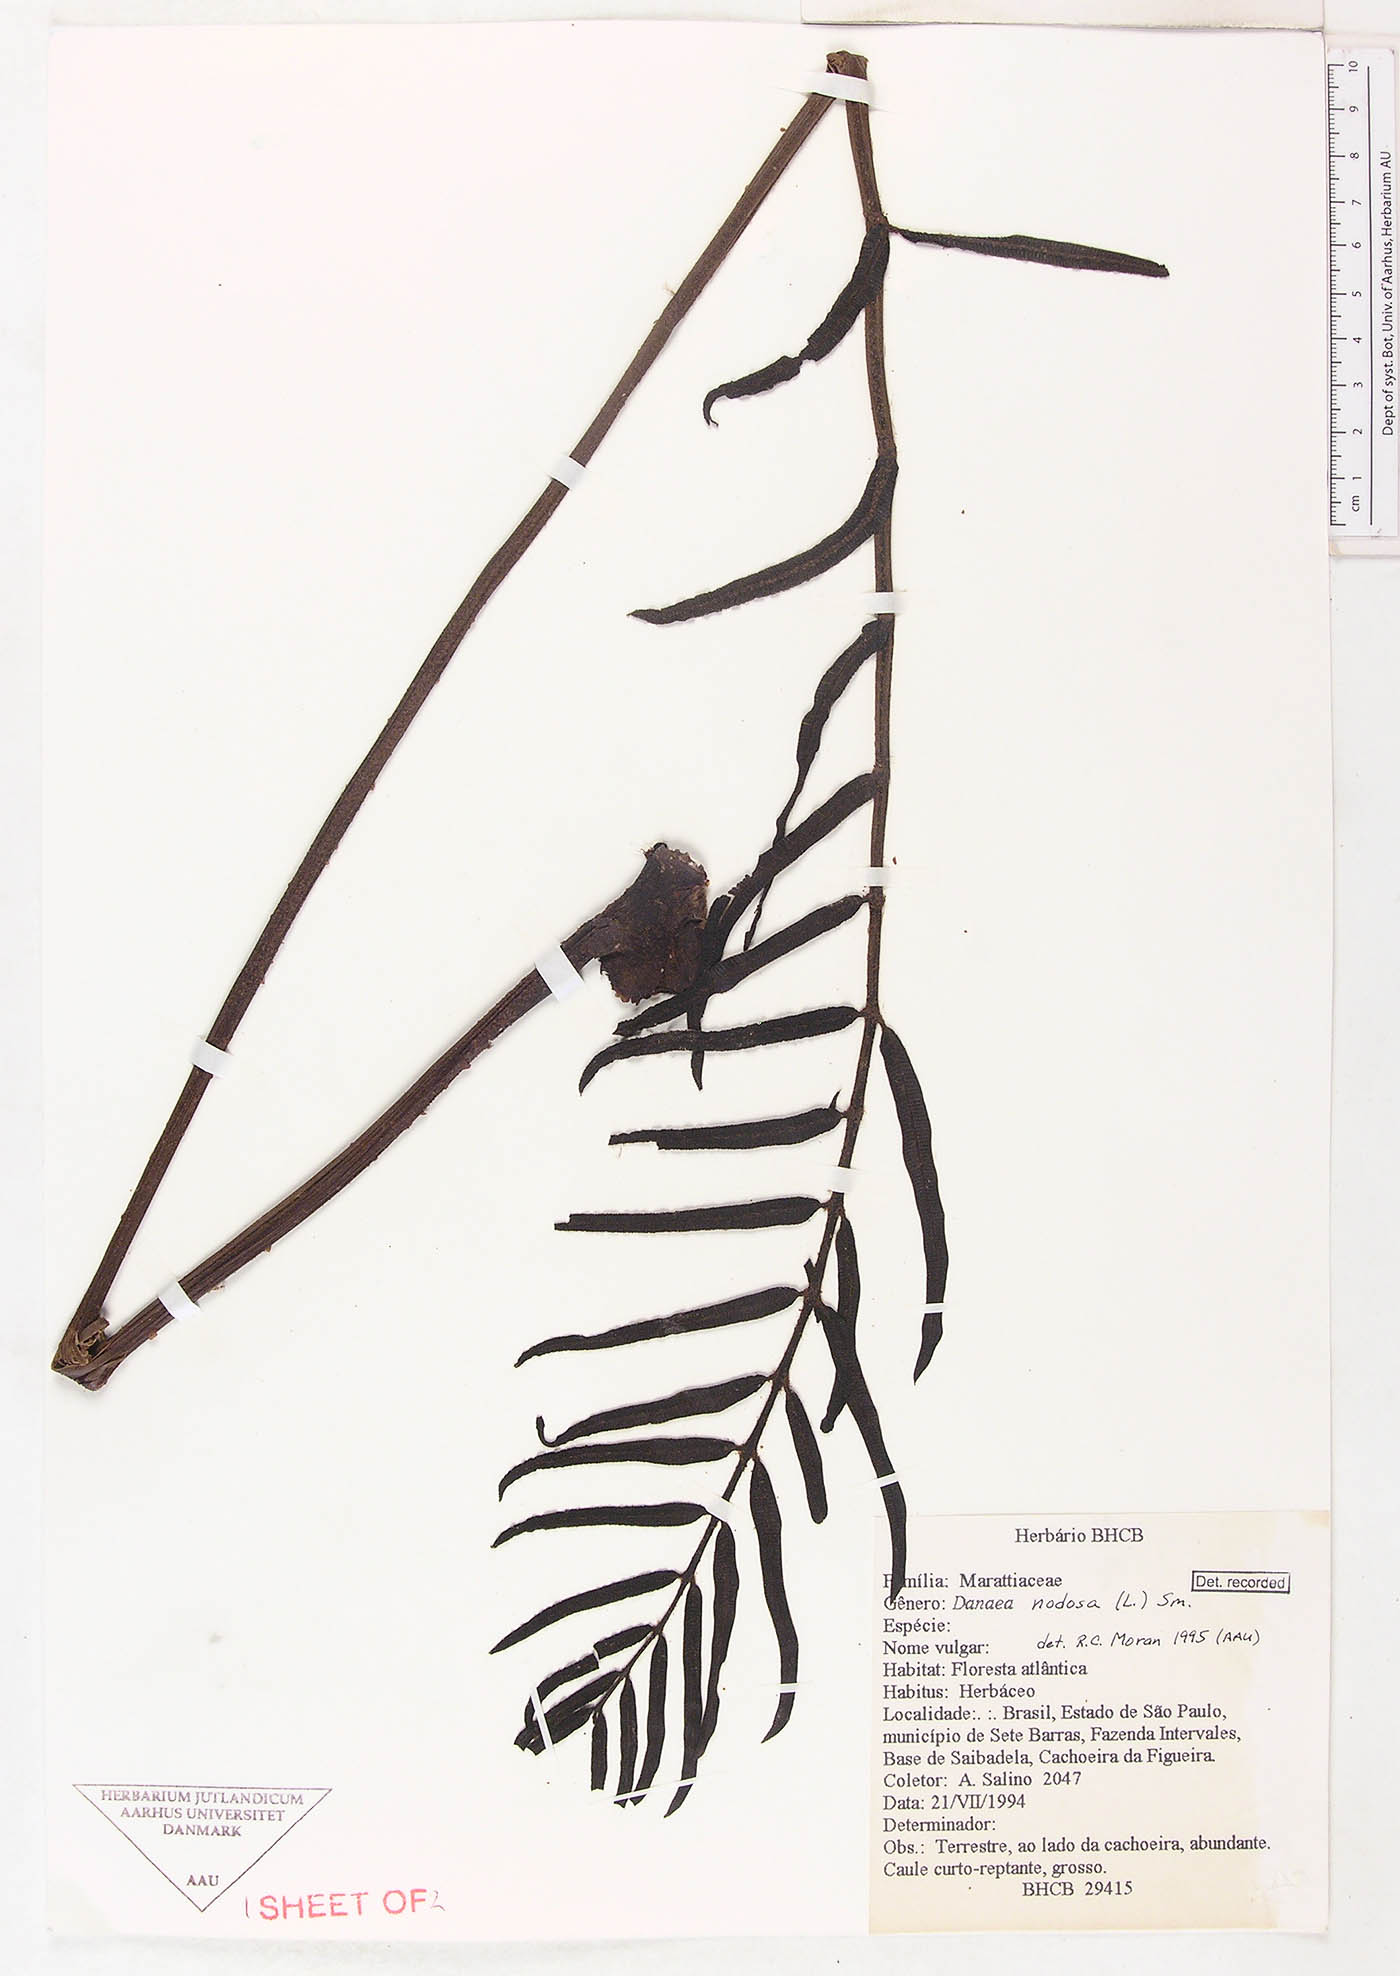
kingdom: Plantae
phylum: Tracheophyta
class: Polypodiopsida
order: Marattiales
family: Marattiaceae
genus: Danaea
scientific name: Danaea nodosa
